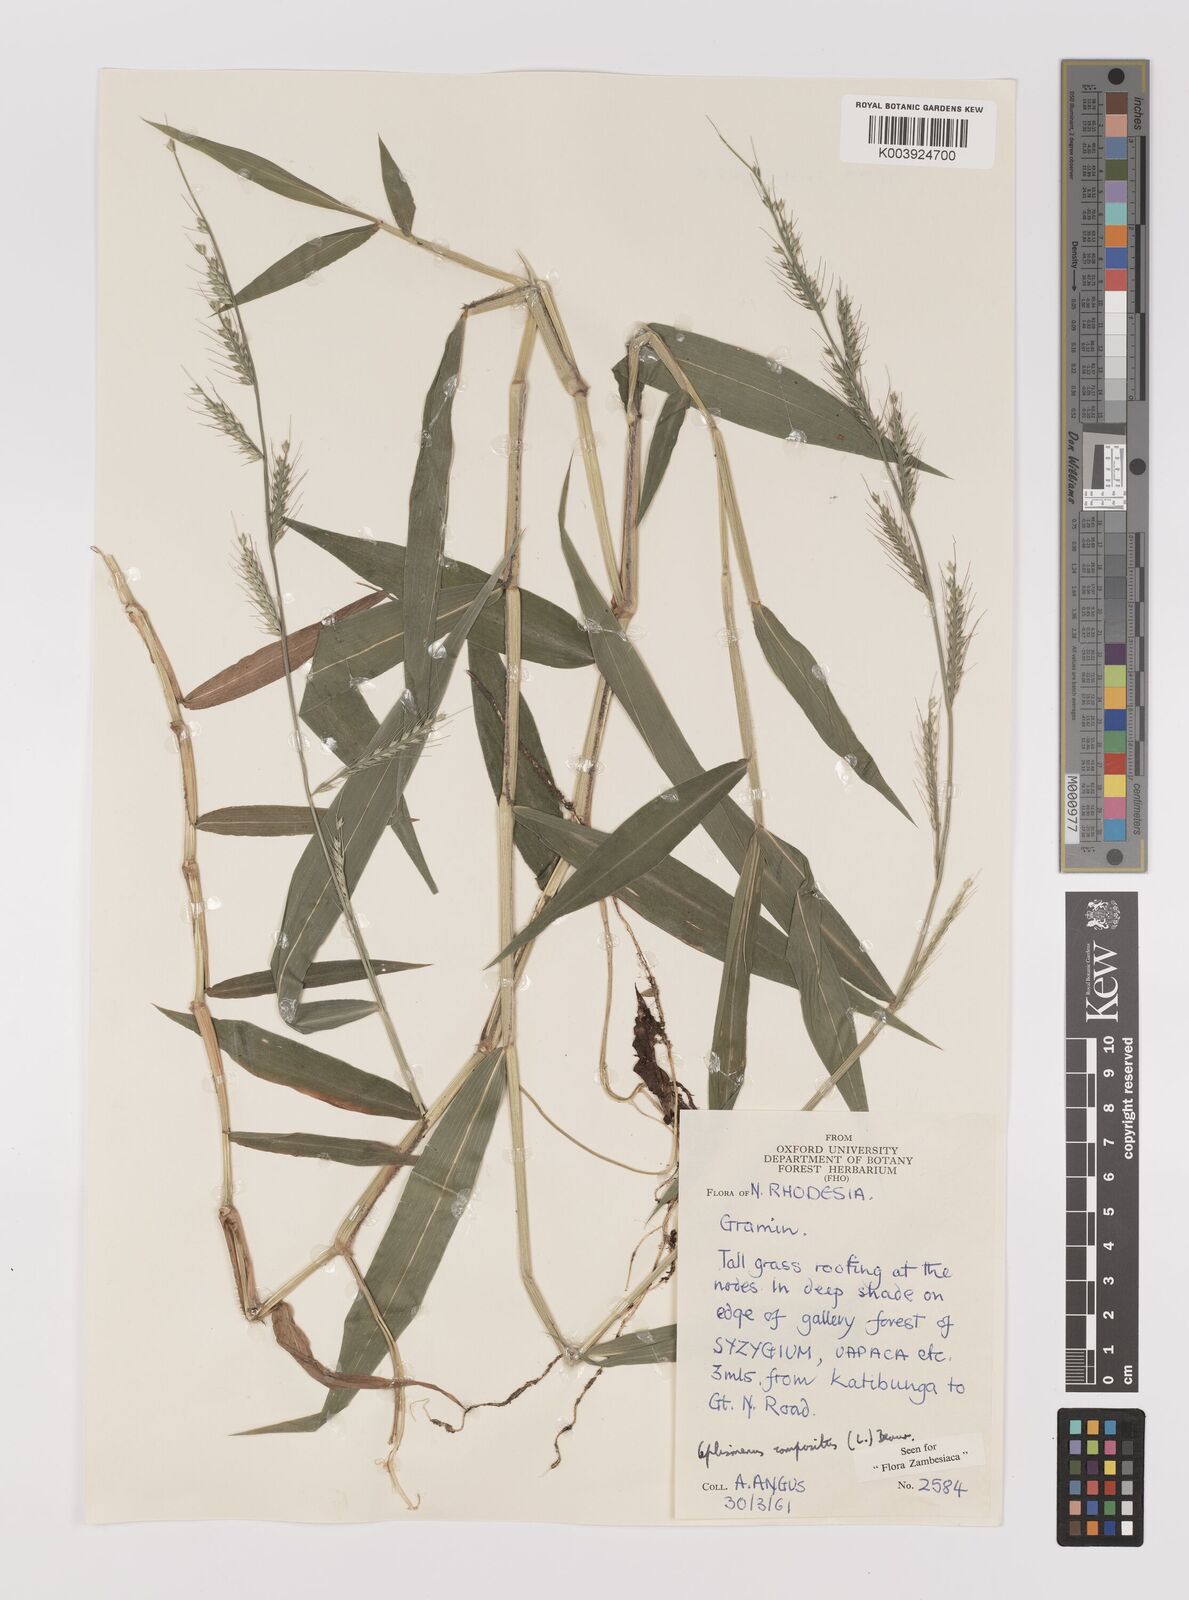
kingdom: Plantae
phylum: Tracheophyta
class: Liliopsida
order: Poales
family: Poaceae
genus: Oplismenus
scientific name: Oplismenus compositus
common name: Running mountain grass
